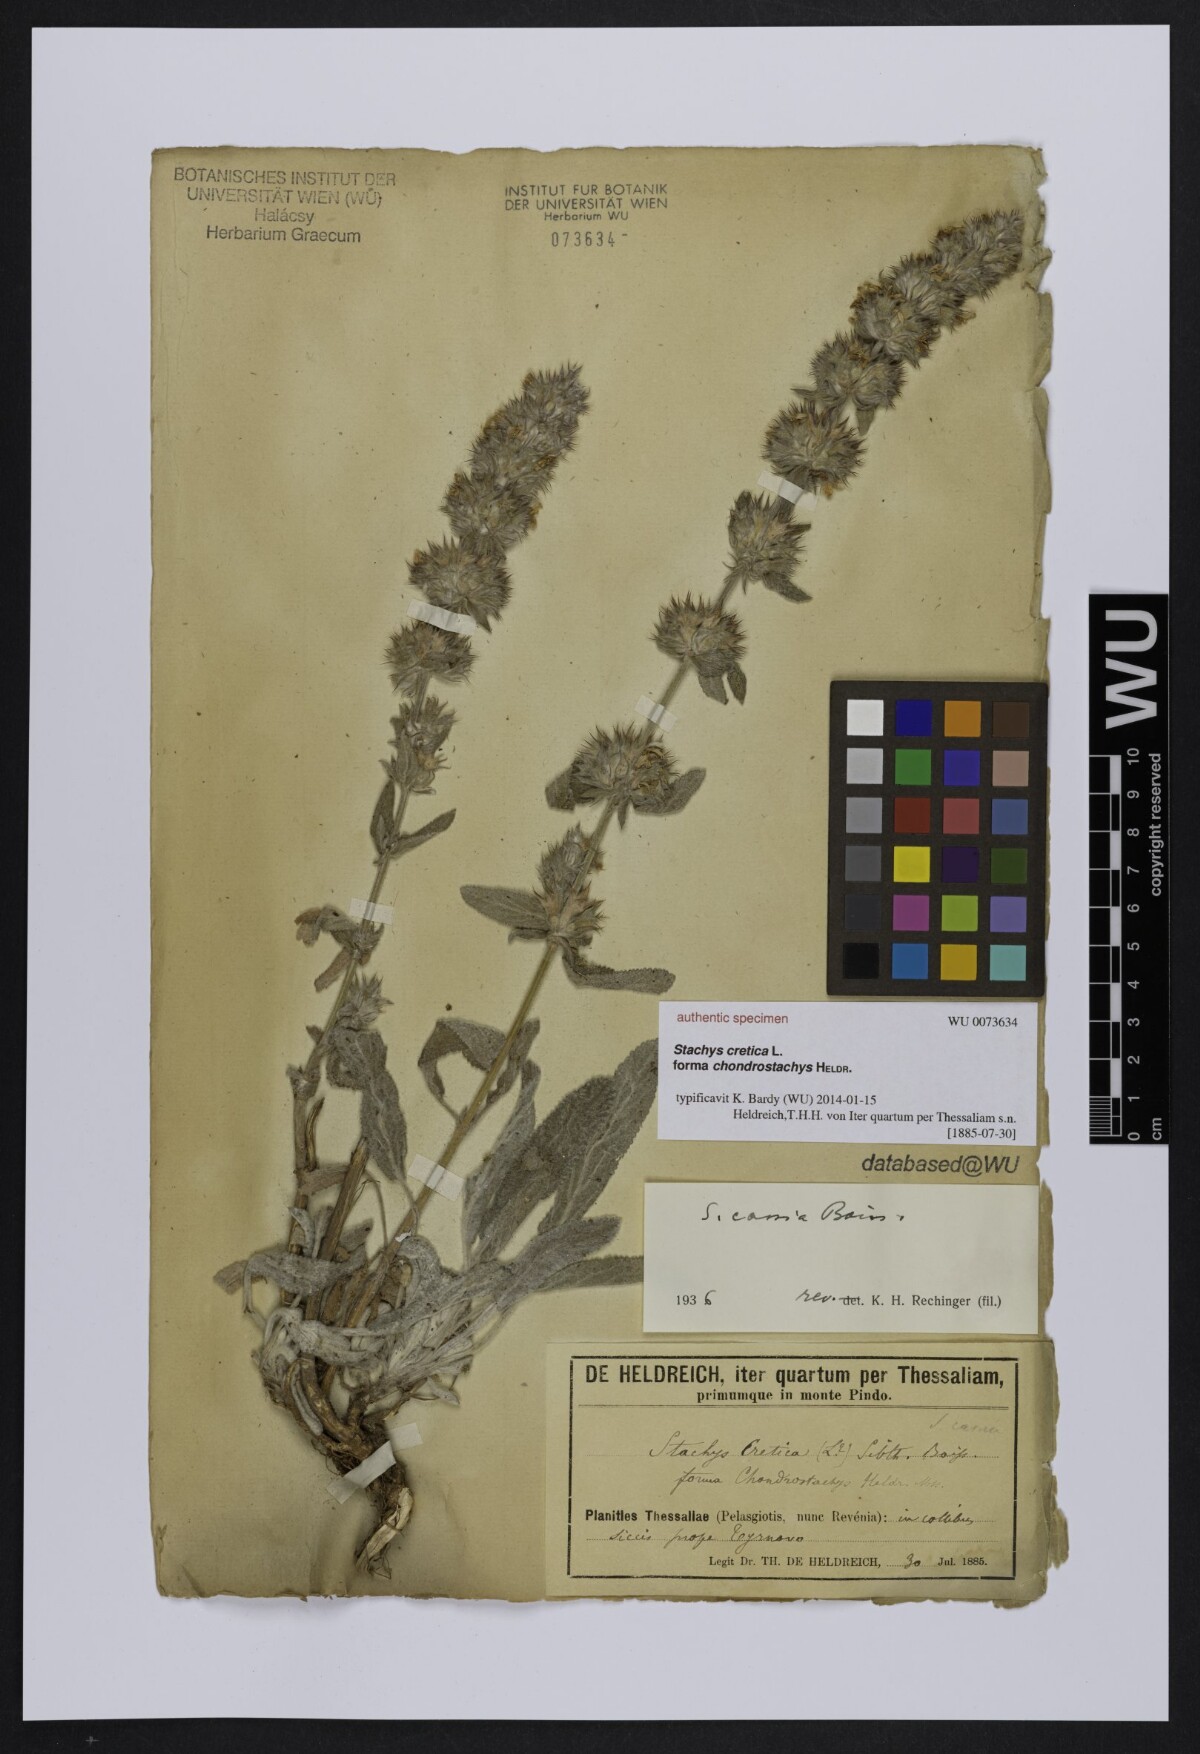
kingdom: Plantae
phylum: Tracheophyta
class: Magnoliopsida
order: Lamiales
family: Lamiaceae
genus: Stachys
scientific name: Stachys cretica
